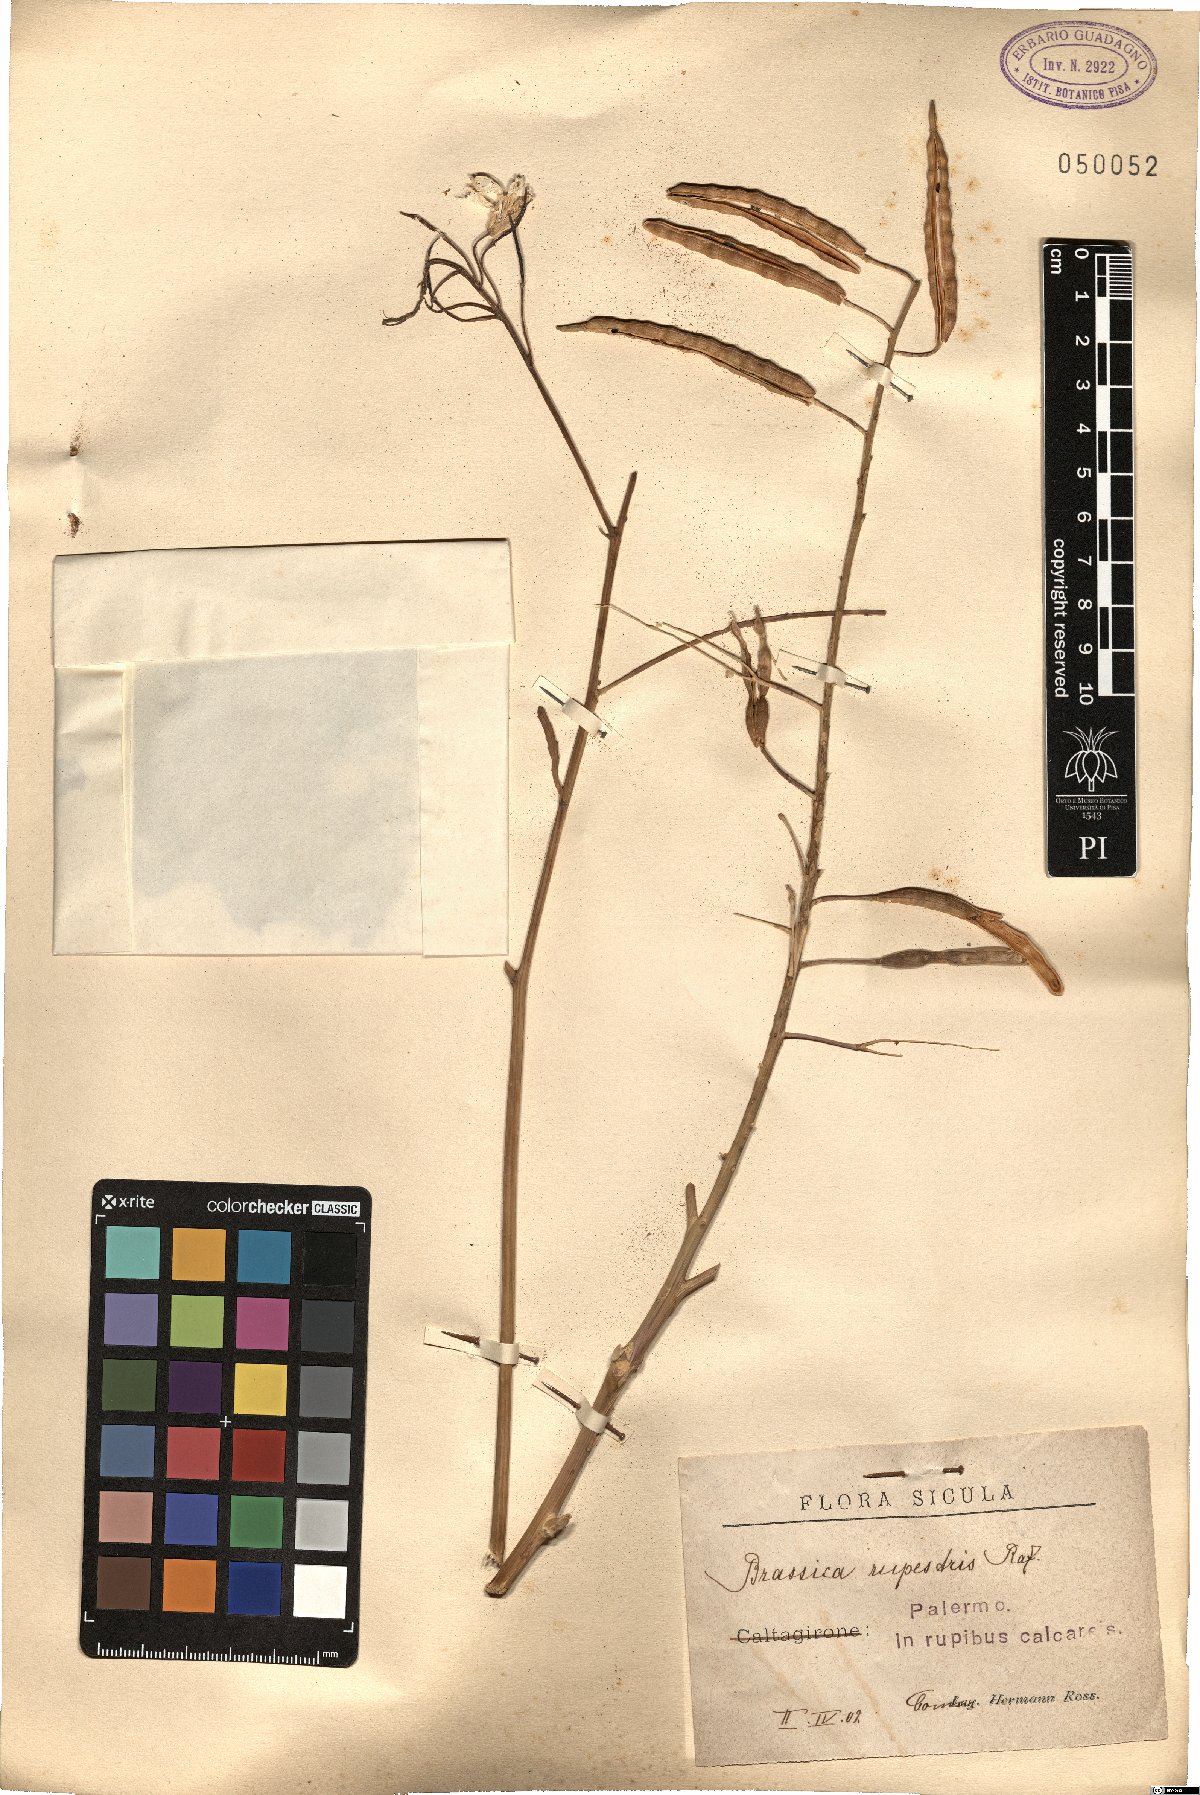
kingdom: Plantae
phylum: Tracheophyta
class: Magnoliopsida
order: Brassicales
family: Brassicaceae
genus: Brassica
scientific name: Brassica rupestris
